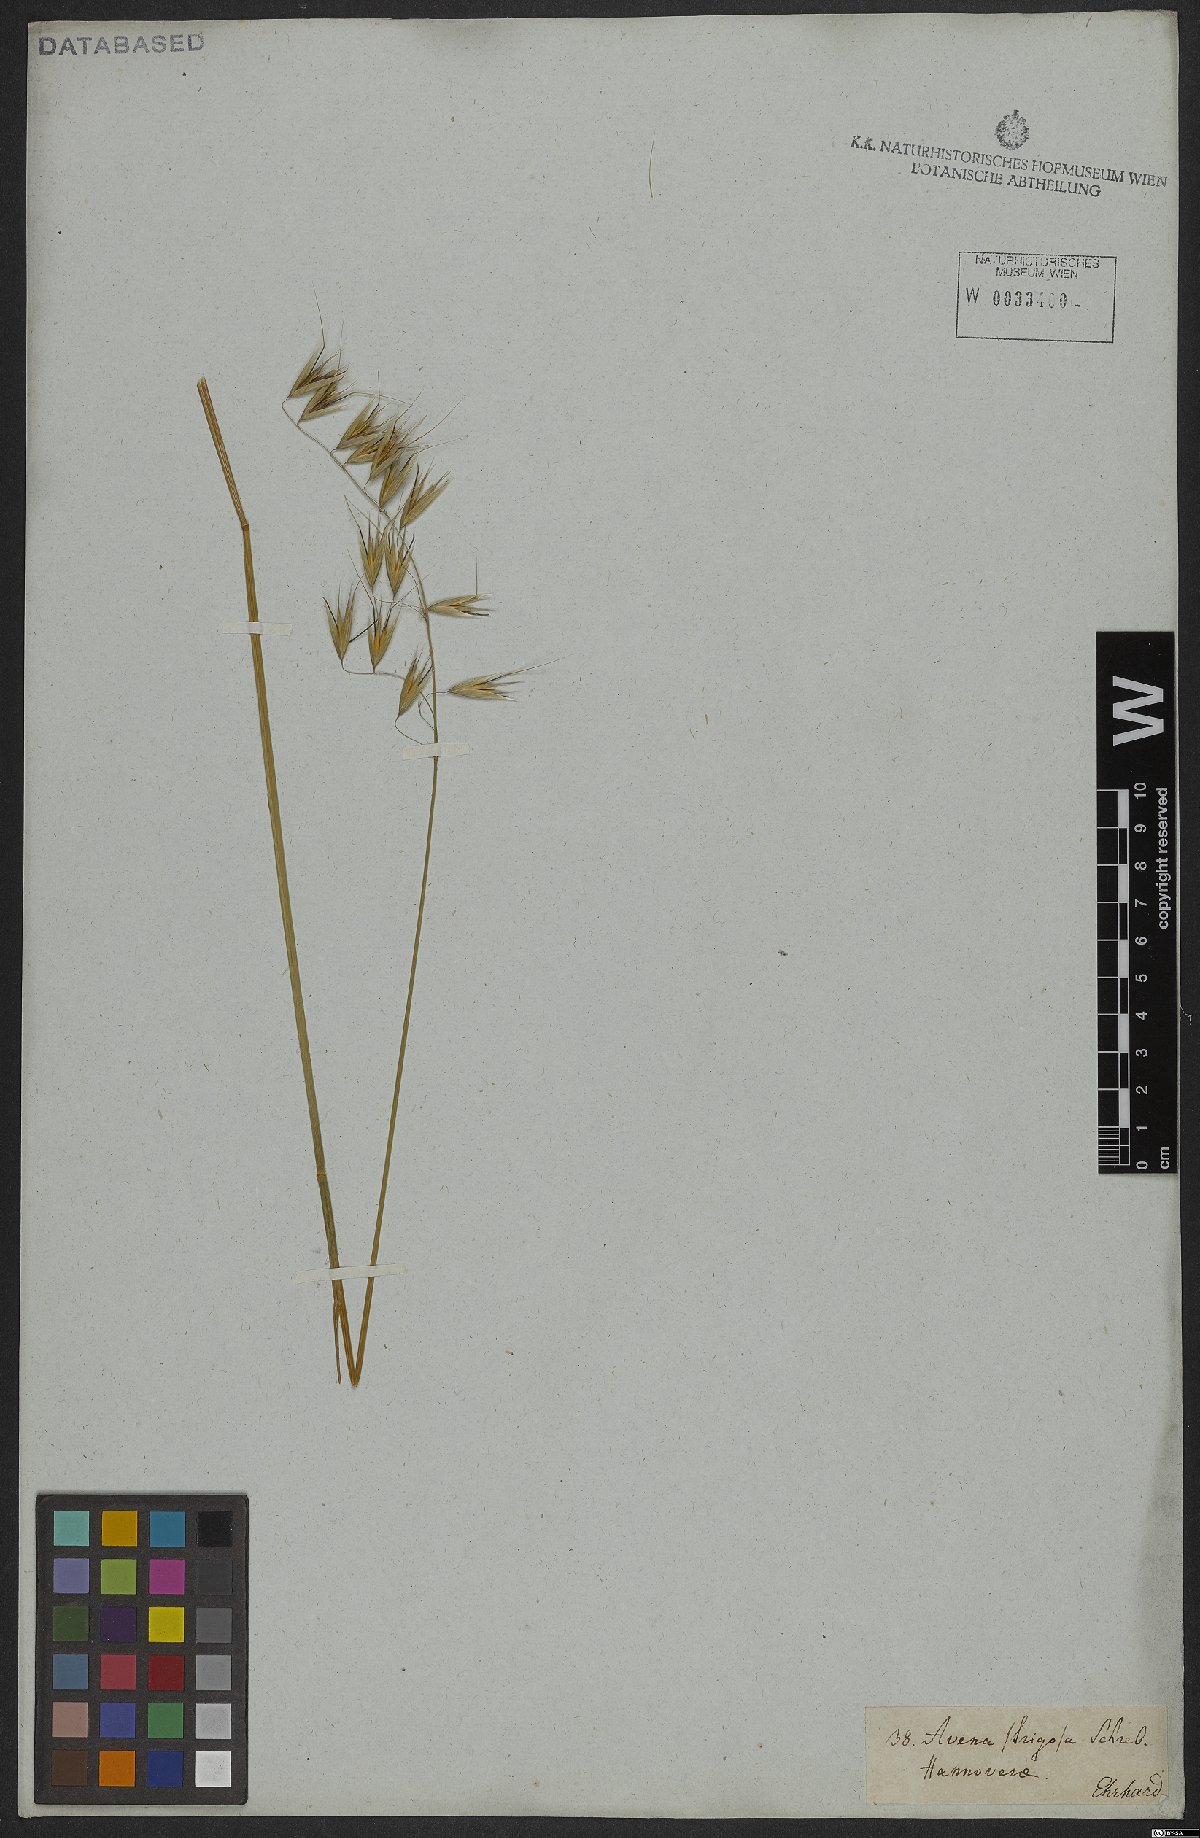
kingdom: Plantae
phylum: Tracheophyta
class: Liliopsida
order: Poales
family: Poaceae
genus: Avena
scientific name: Avena strigosa
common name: Bristle oat
